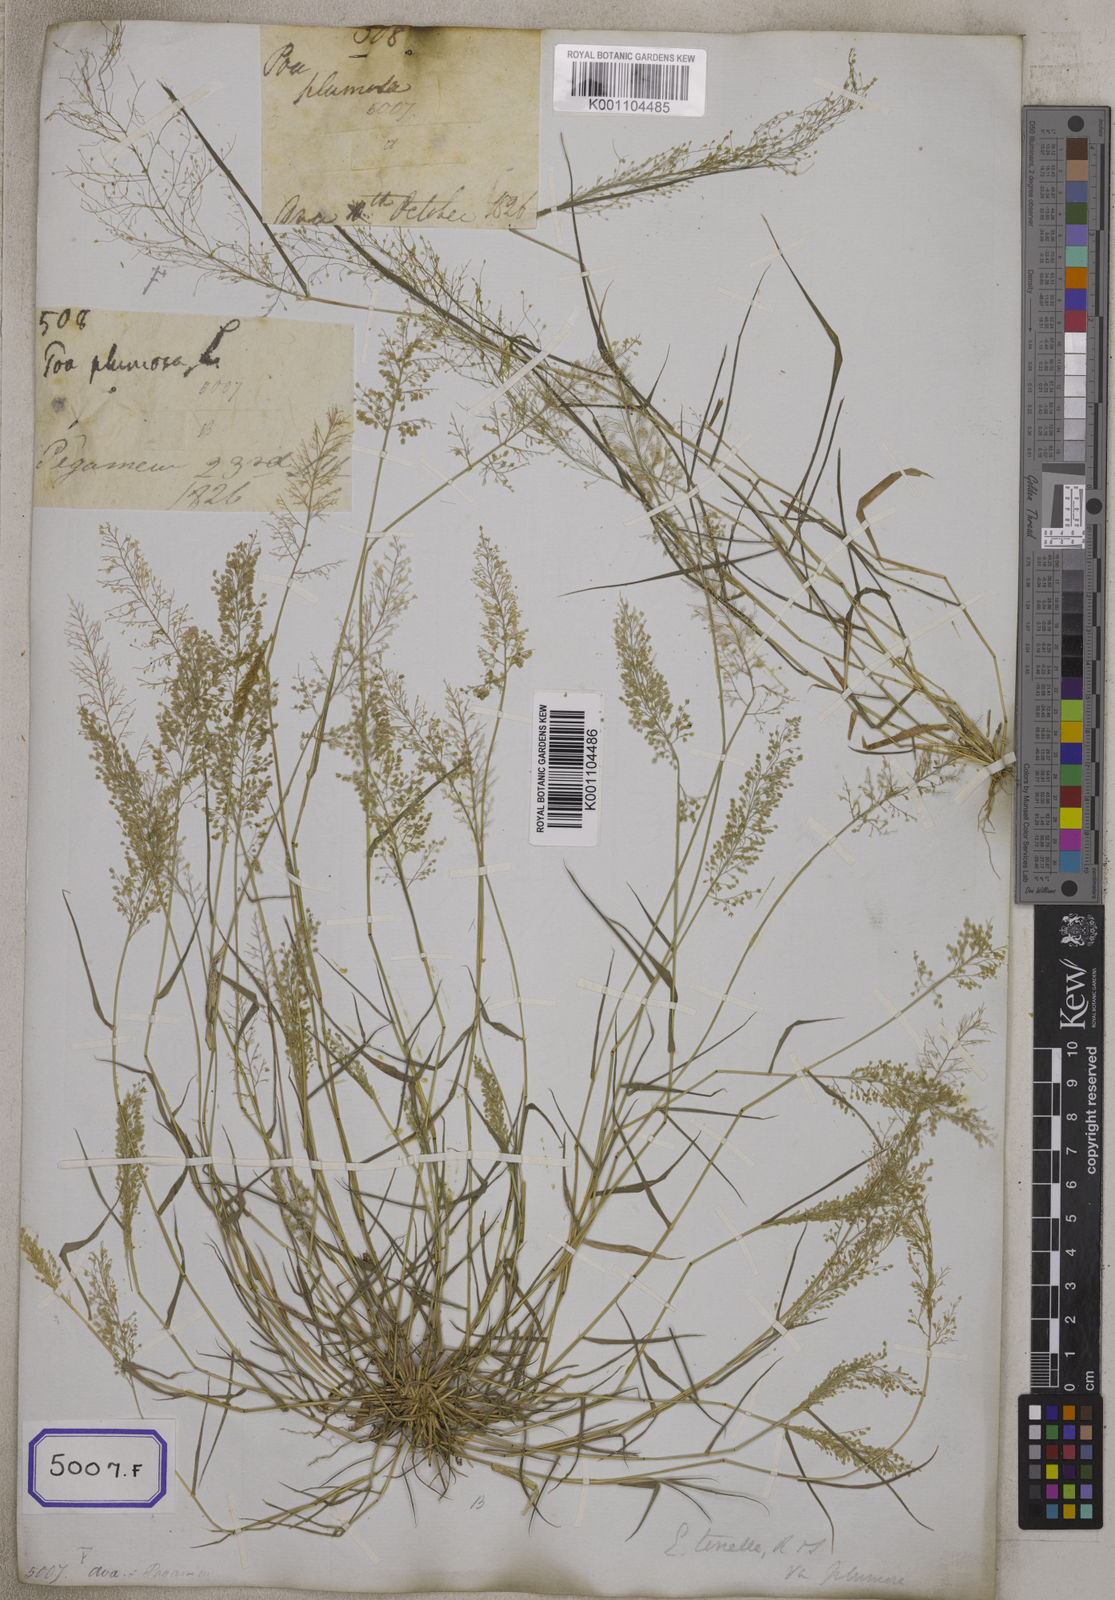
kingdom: Plantae
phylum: Tracheophyta
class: Liliopsida
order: Poales
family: Poaceae
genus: Eragrostis
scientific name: Eragrostis
